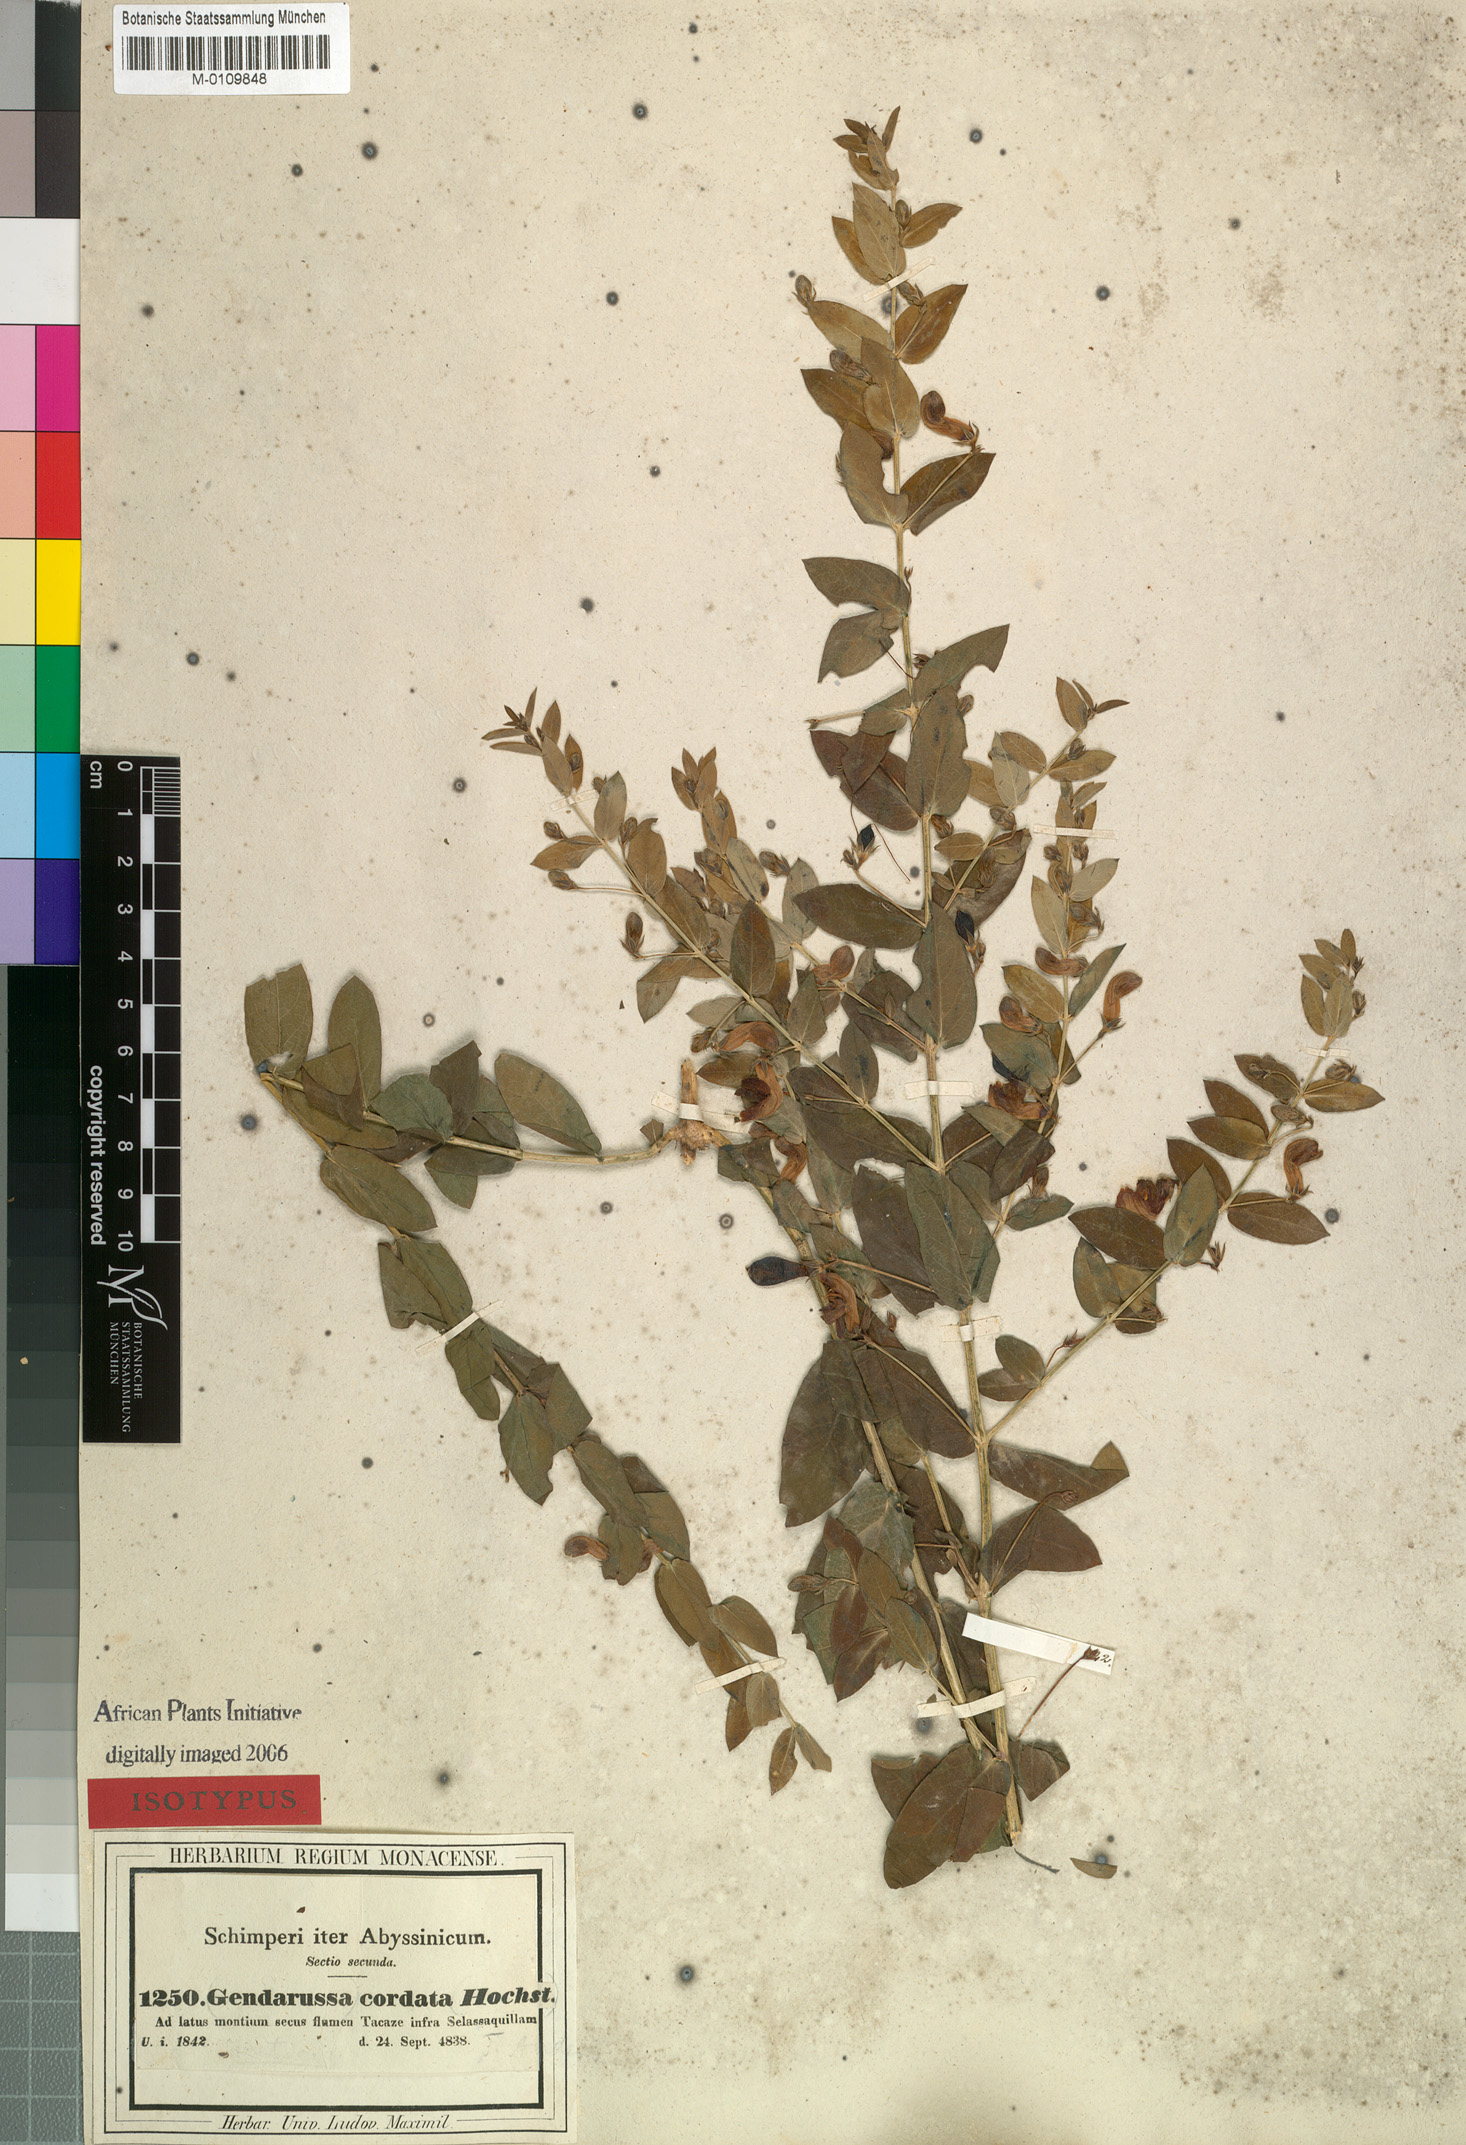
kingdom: Plantae
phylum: Tracheophyta
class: Magnoliopsida
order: Lamiales
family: Acanthaceae
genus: Justicia
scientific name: Justicia cordata
